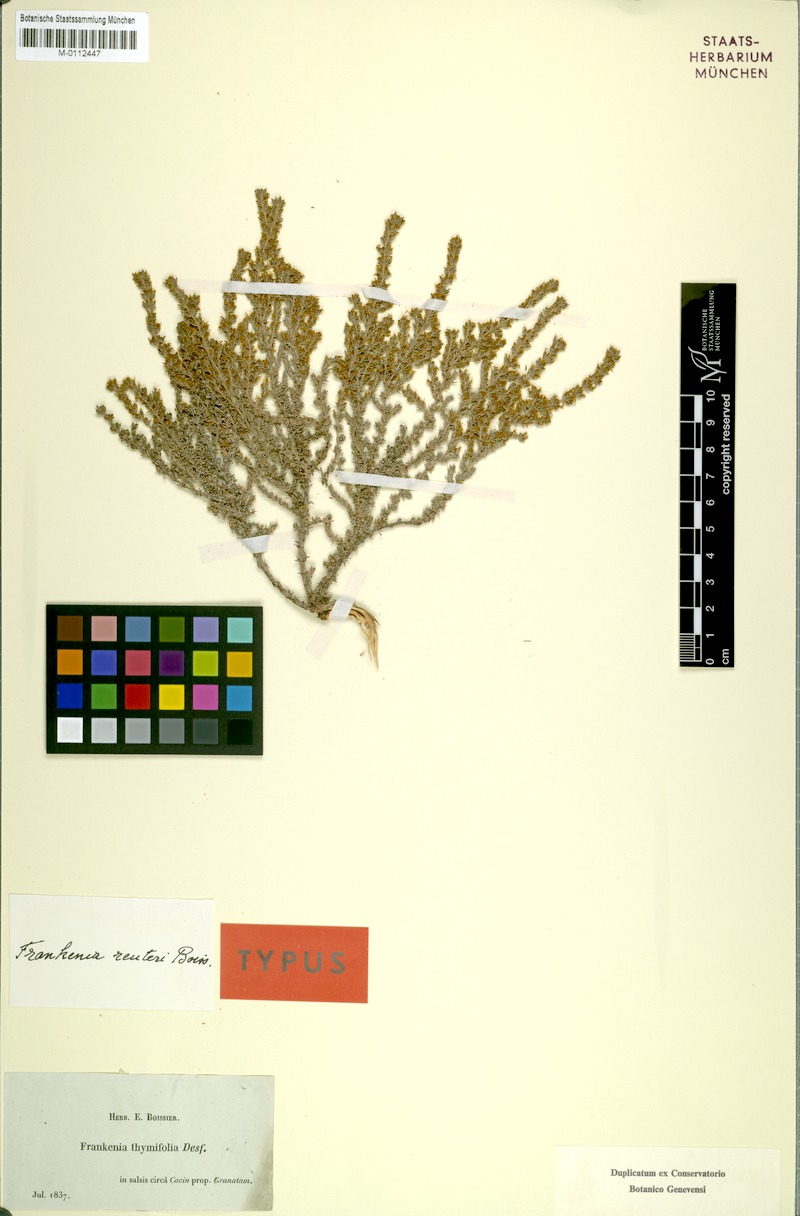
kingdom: Plantae
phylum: Tracheophyta
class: Magnoliopsida
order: Caryophyllales
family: Frankeniaceae
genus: Frankenia
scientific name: Frankenia thymifolia
